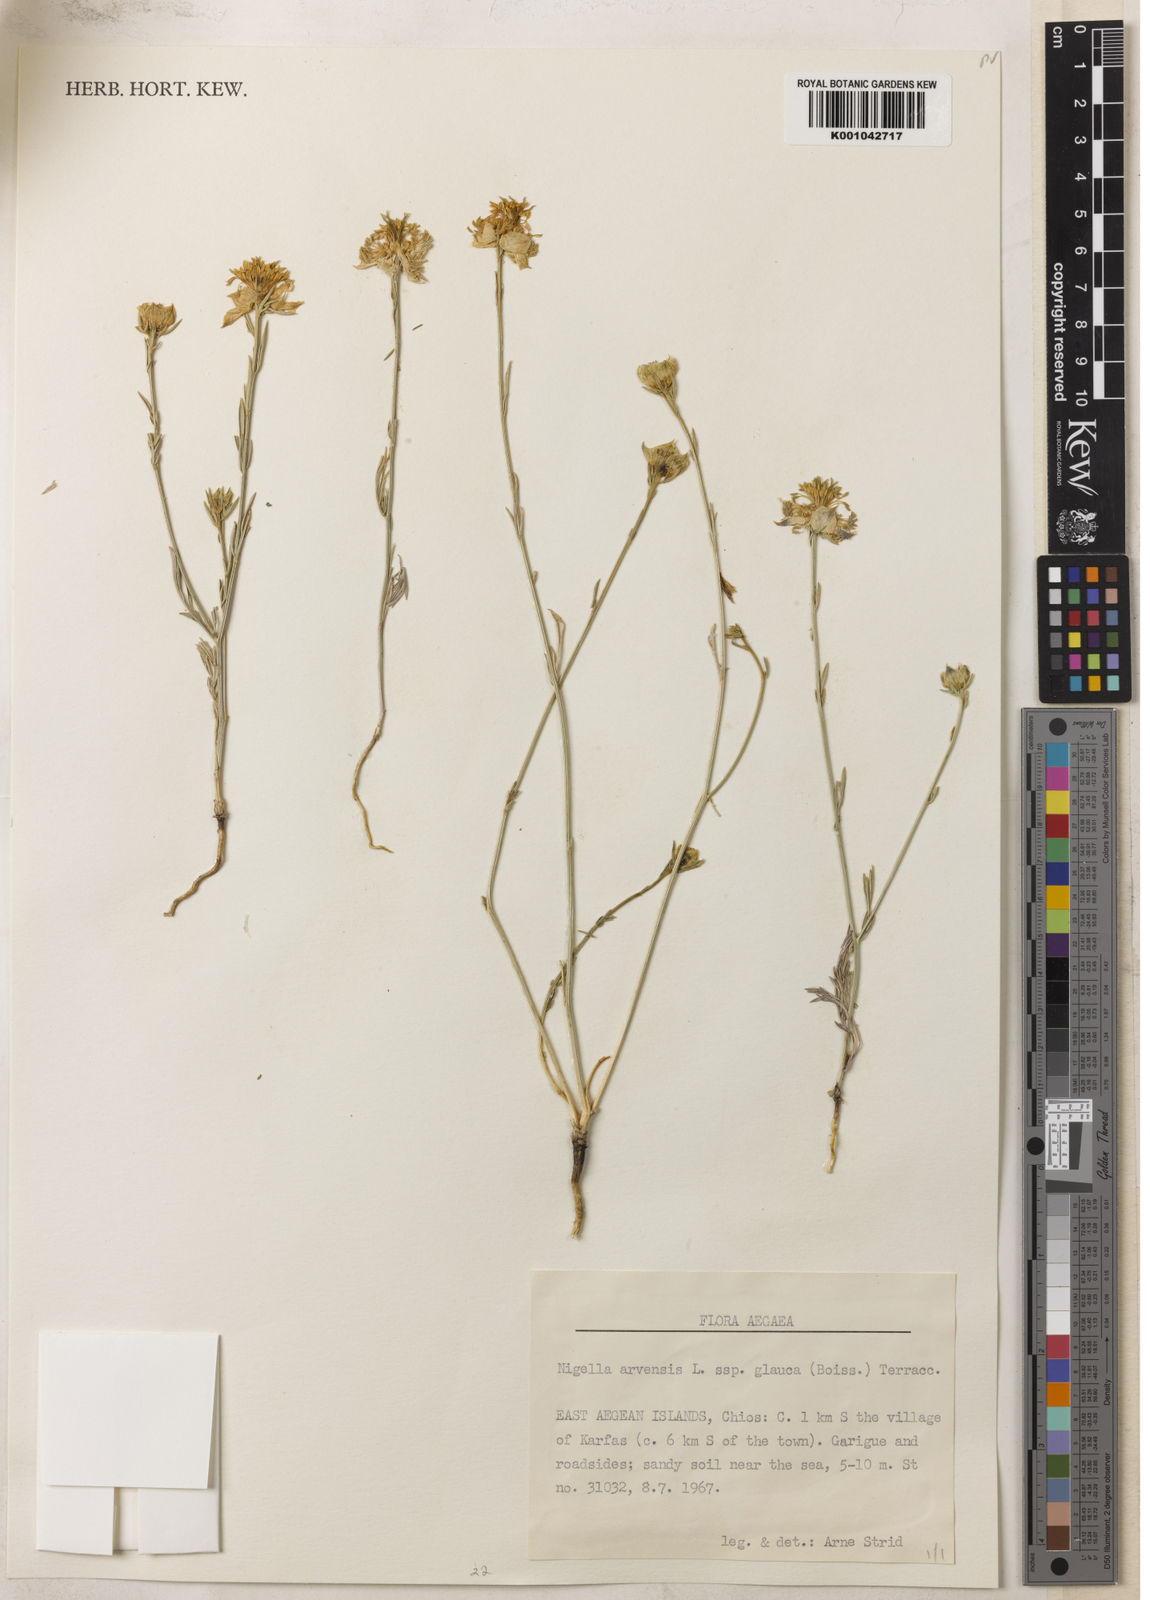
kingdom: Plantae
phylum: Tracheophyta
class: Magnoliopsida
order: Ranunculales
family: Ranunculaceae
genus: Nigella
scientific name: Nigella arvensis
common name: Wild fennel-flower
